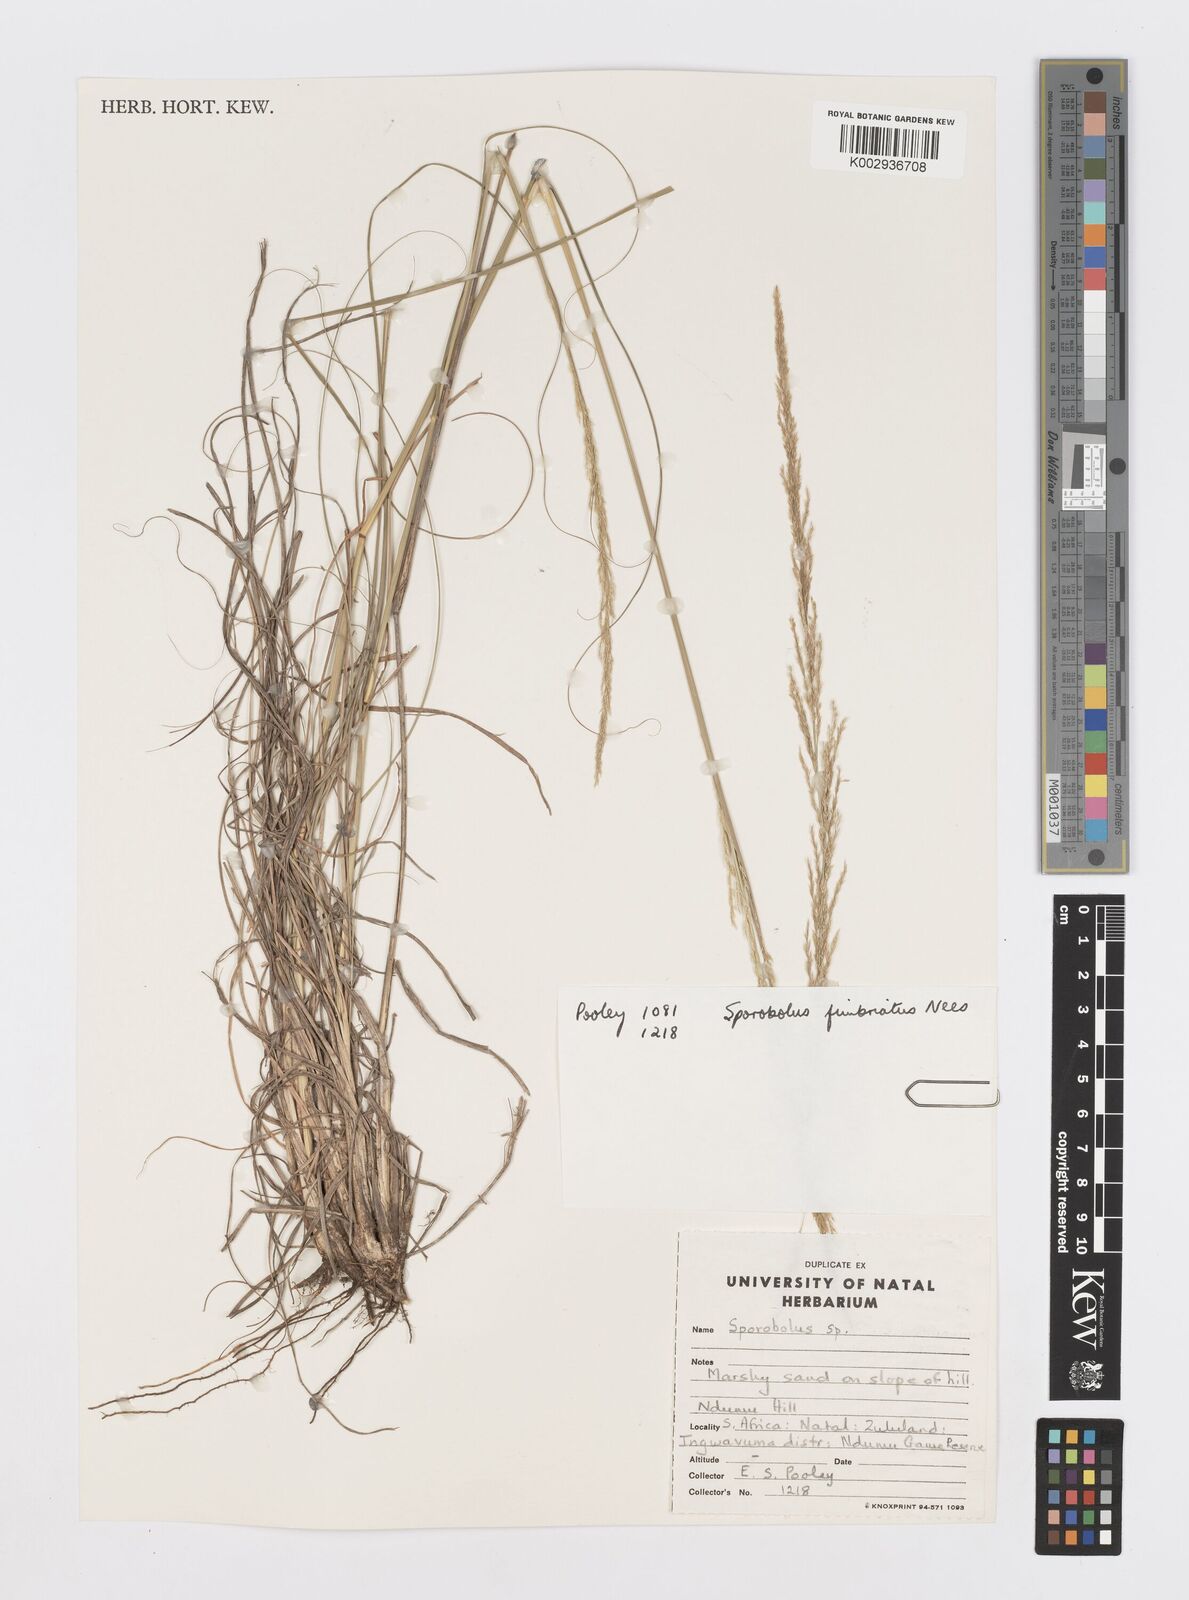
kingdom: Plantae
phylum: Tracheophyta
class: Liliopsida
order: Poales
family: Poaceae
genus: Sporobolus
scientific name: Sporobolus fimbriatus
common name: Fringed dropseed
